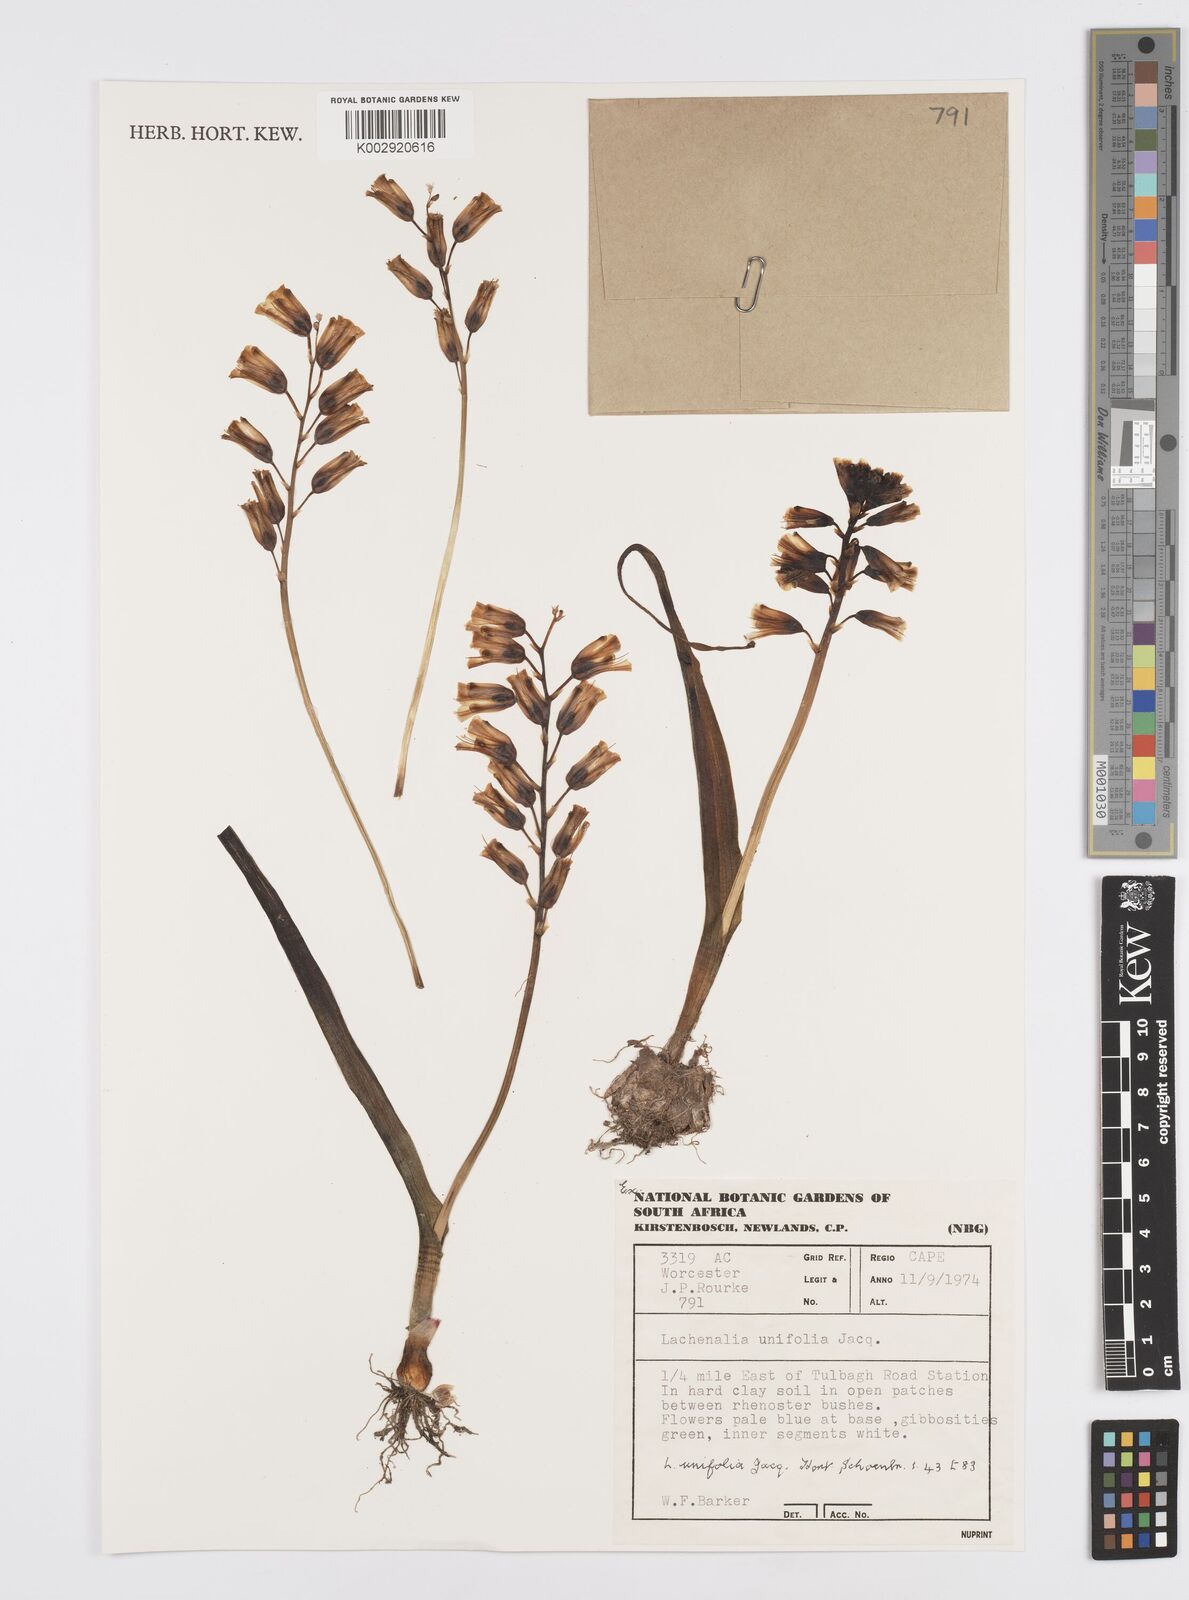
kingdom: Plantae
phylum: Tracheophyta
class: Liliopsida
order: Asparagales
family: Asparagaceae
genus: Lachenalia
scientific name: Lachenalia unifolia
